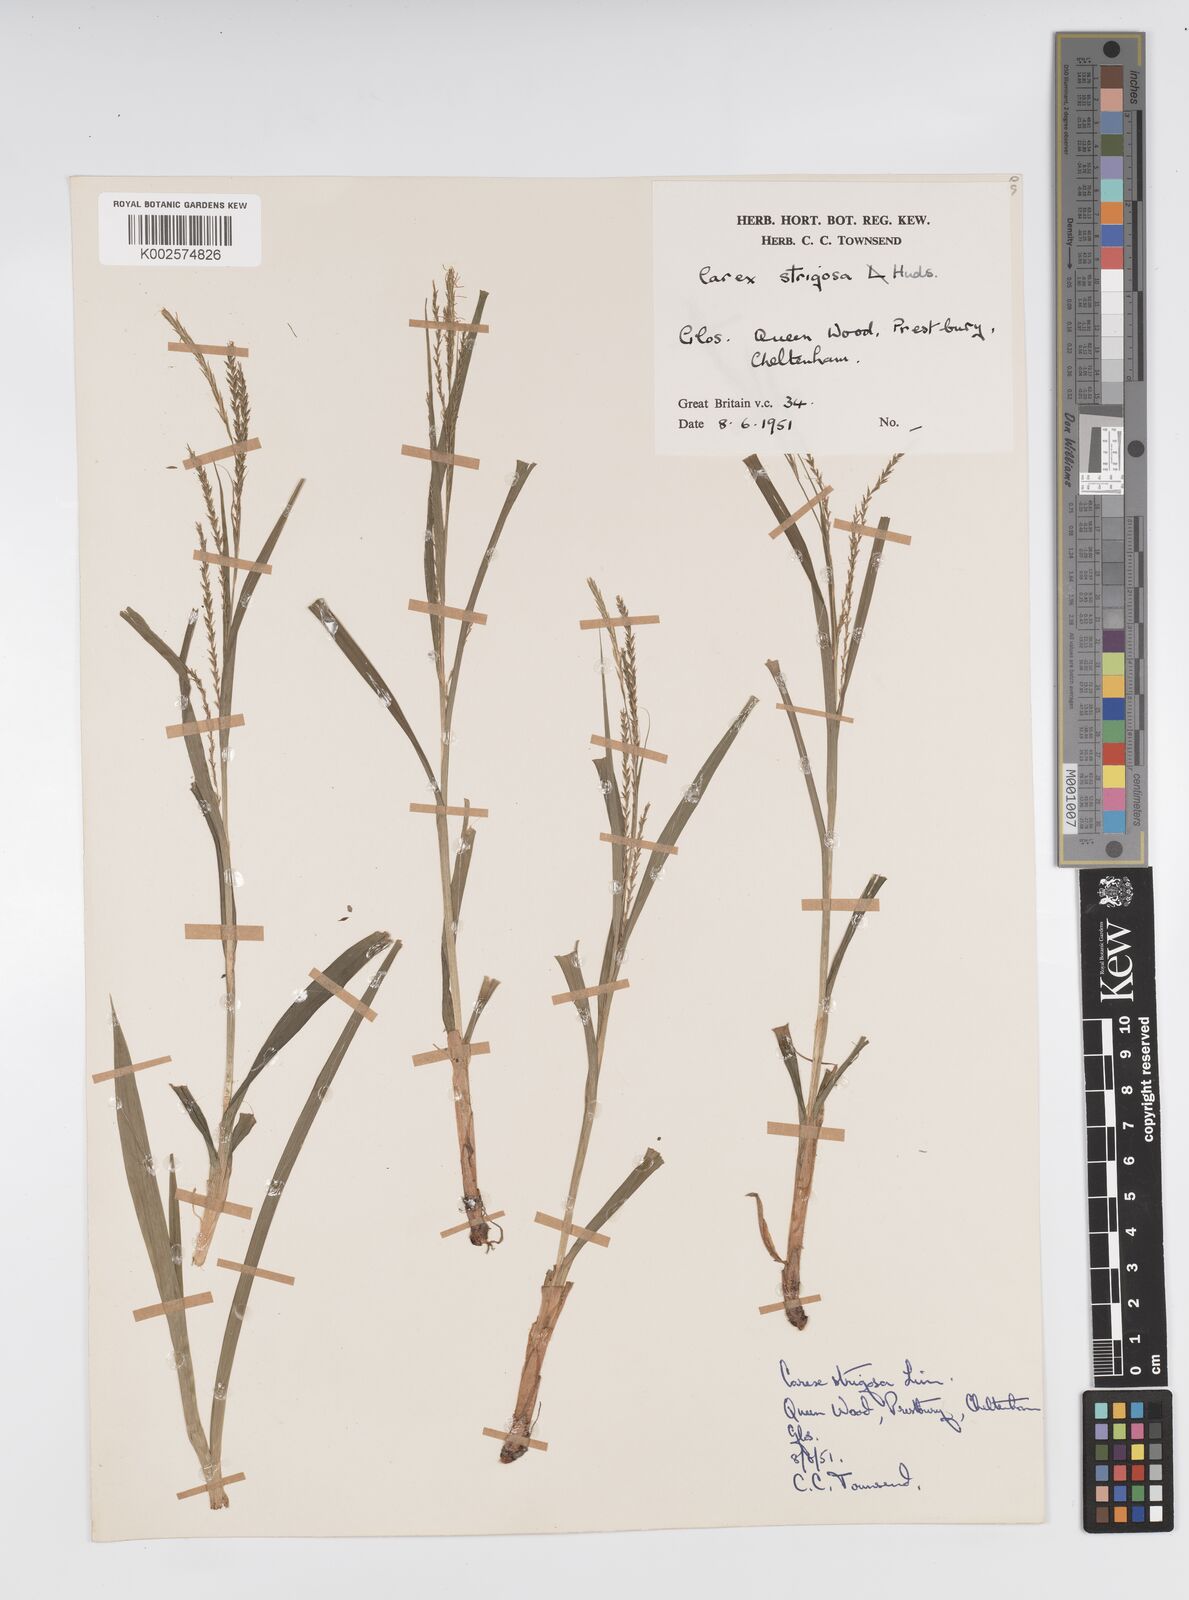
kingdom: Plantae
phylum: Tracheophyta
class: Liliopsida
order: Poales
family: Cyperaceae
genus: Carex
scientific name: Carex strigosa
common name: Thin-spiked wood-sedge
